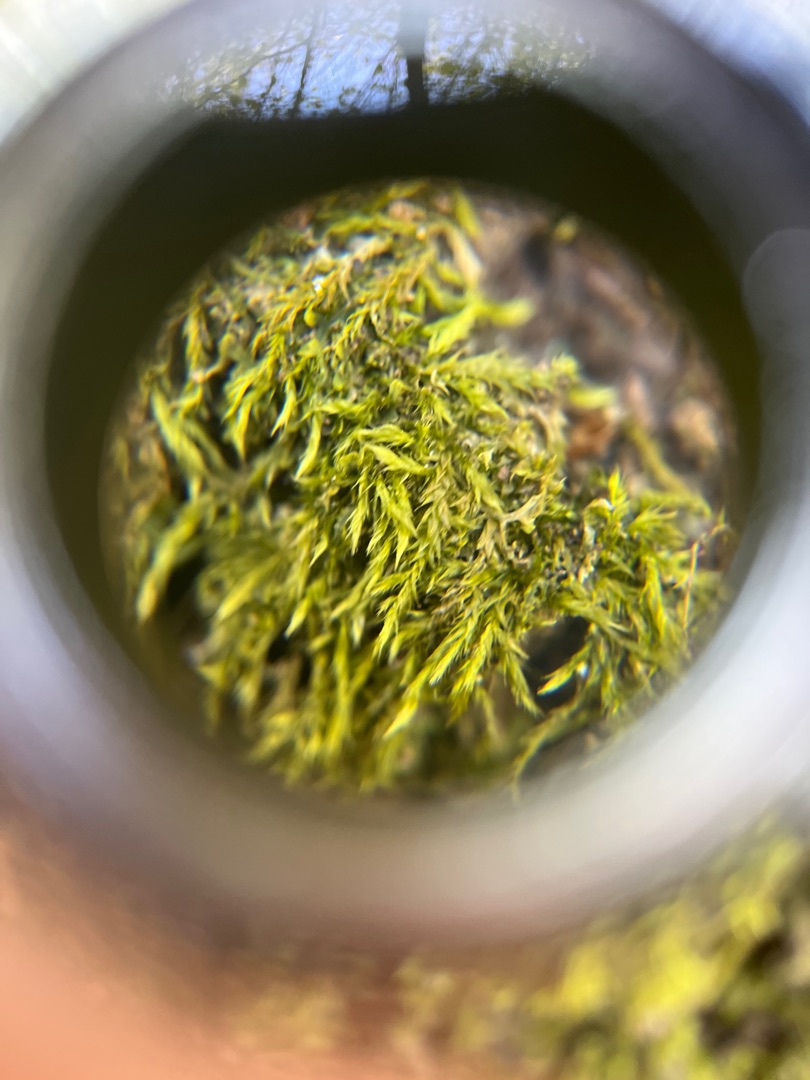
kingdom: Plantae
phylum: Bryophyta
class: Bryopsida
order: Hypnales
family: Hypnaceae
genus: Hypnum
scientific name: Hypnum
